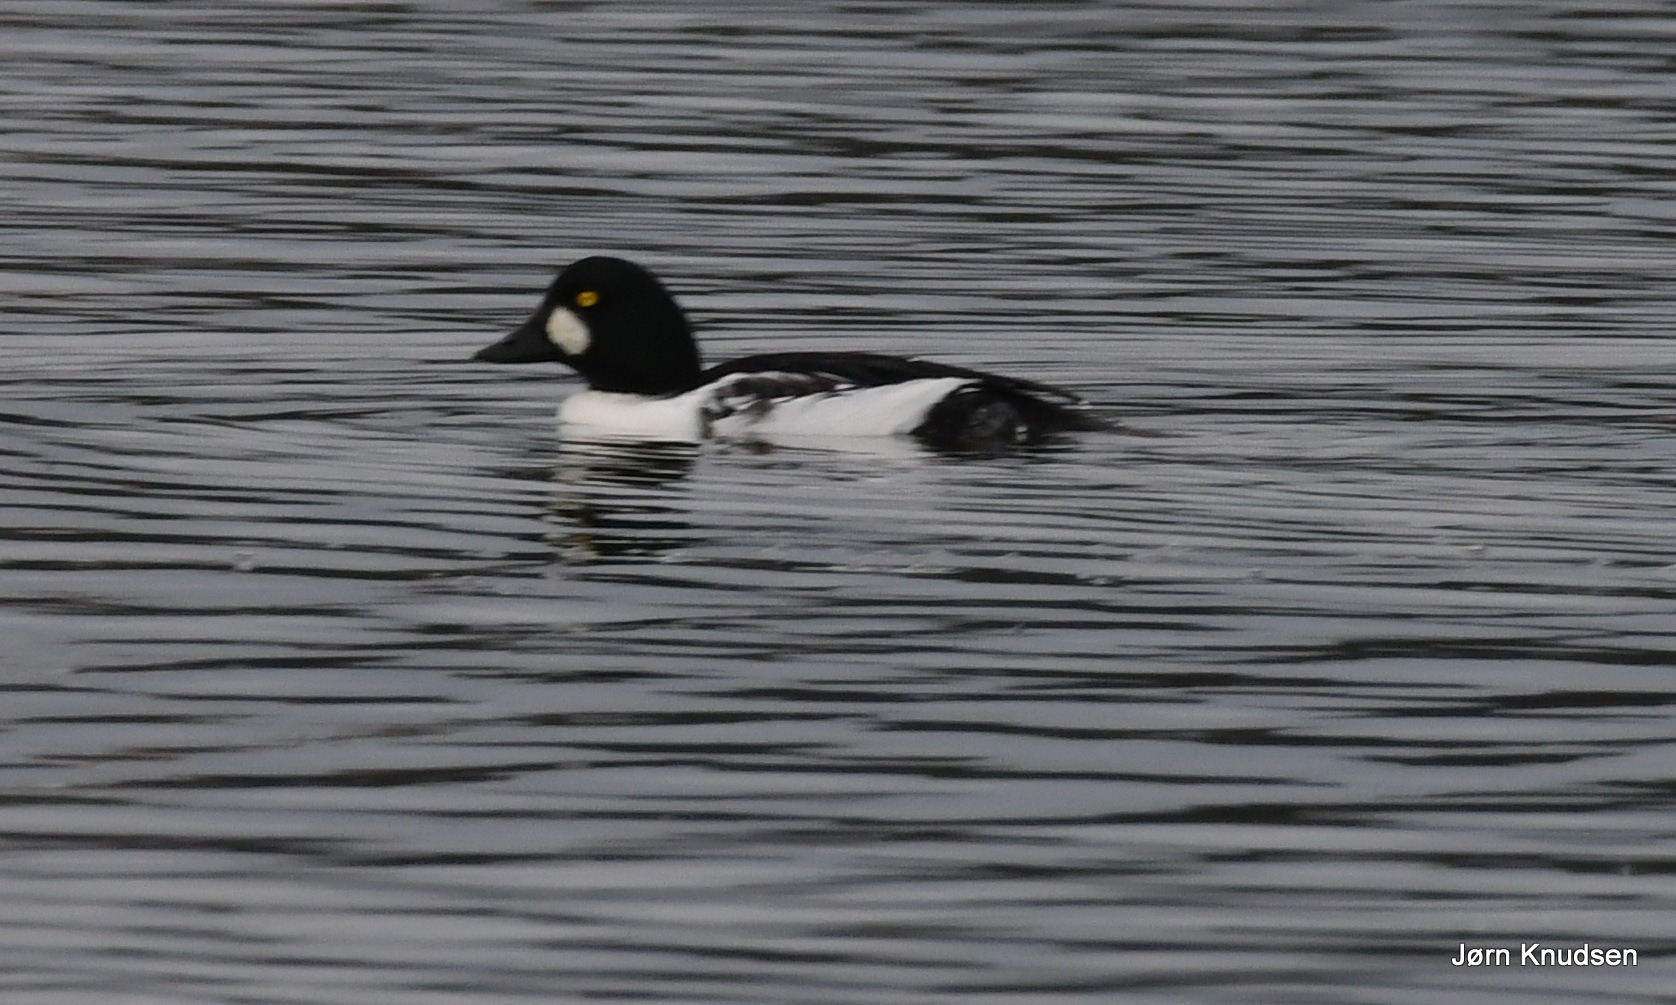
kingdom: Animalia
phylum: Chordata
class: Aves
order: Anseriformes
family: Anatidae
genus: Bucephala
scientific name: Bucephala clangula
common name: Hvinand
